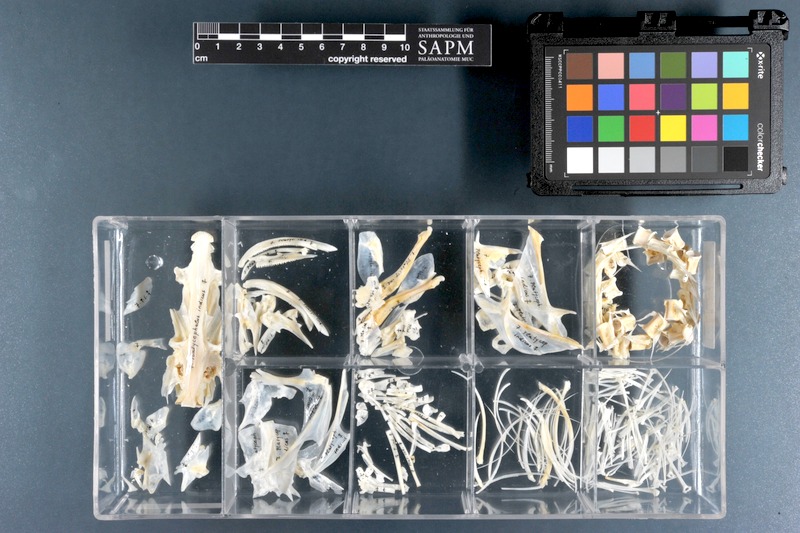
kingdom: Animalia
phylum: Chordata
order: Scorpaeniformes
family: Platycephalidae
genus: Platycephalus
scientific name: Platycephalus indicus
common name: Bartail flathead
